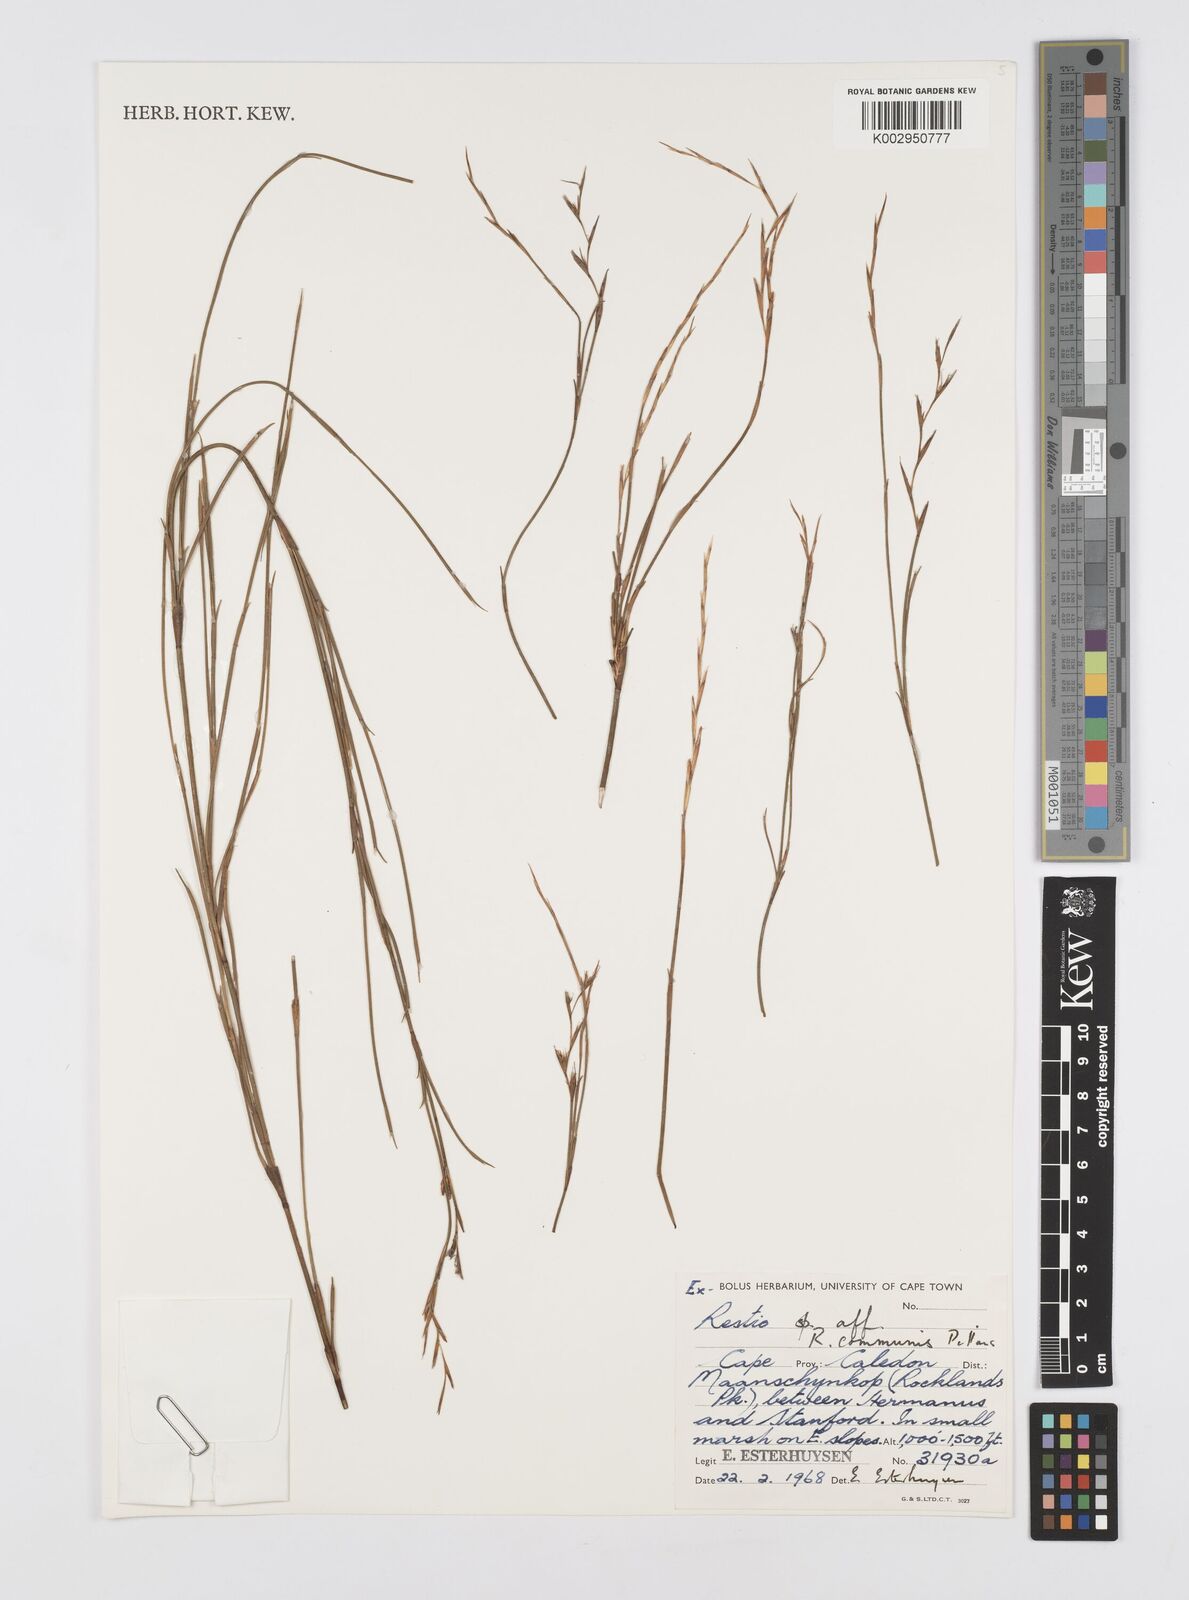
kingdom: Plantae
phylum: Tracheophyta
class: Liliopsida
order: Poales
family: Restionaceae
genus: Restio
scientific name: Restio communis
